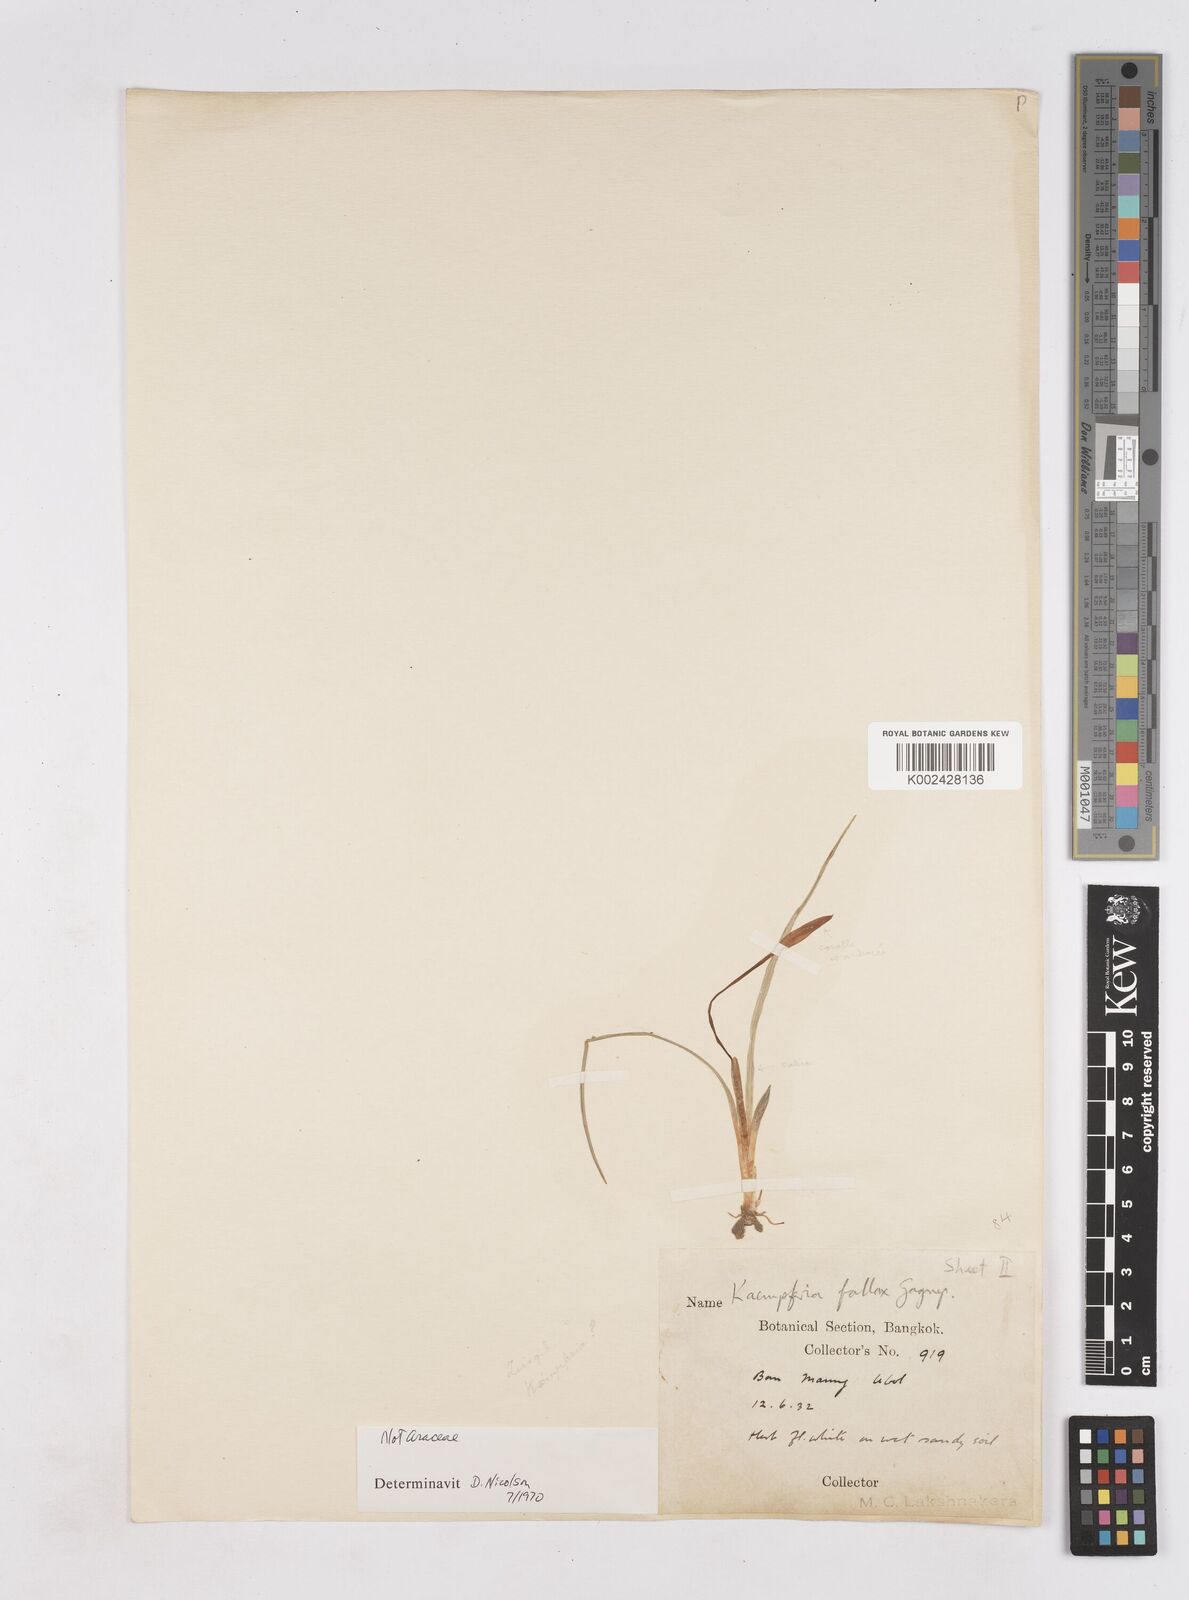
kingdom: Plantae
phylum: Tracheophyta
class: Liliopsida
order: Zingiberales
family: Zingiberaceae
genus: Kaempferia
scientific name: Kaempferia fallax
